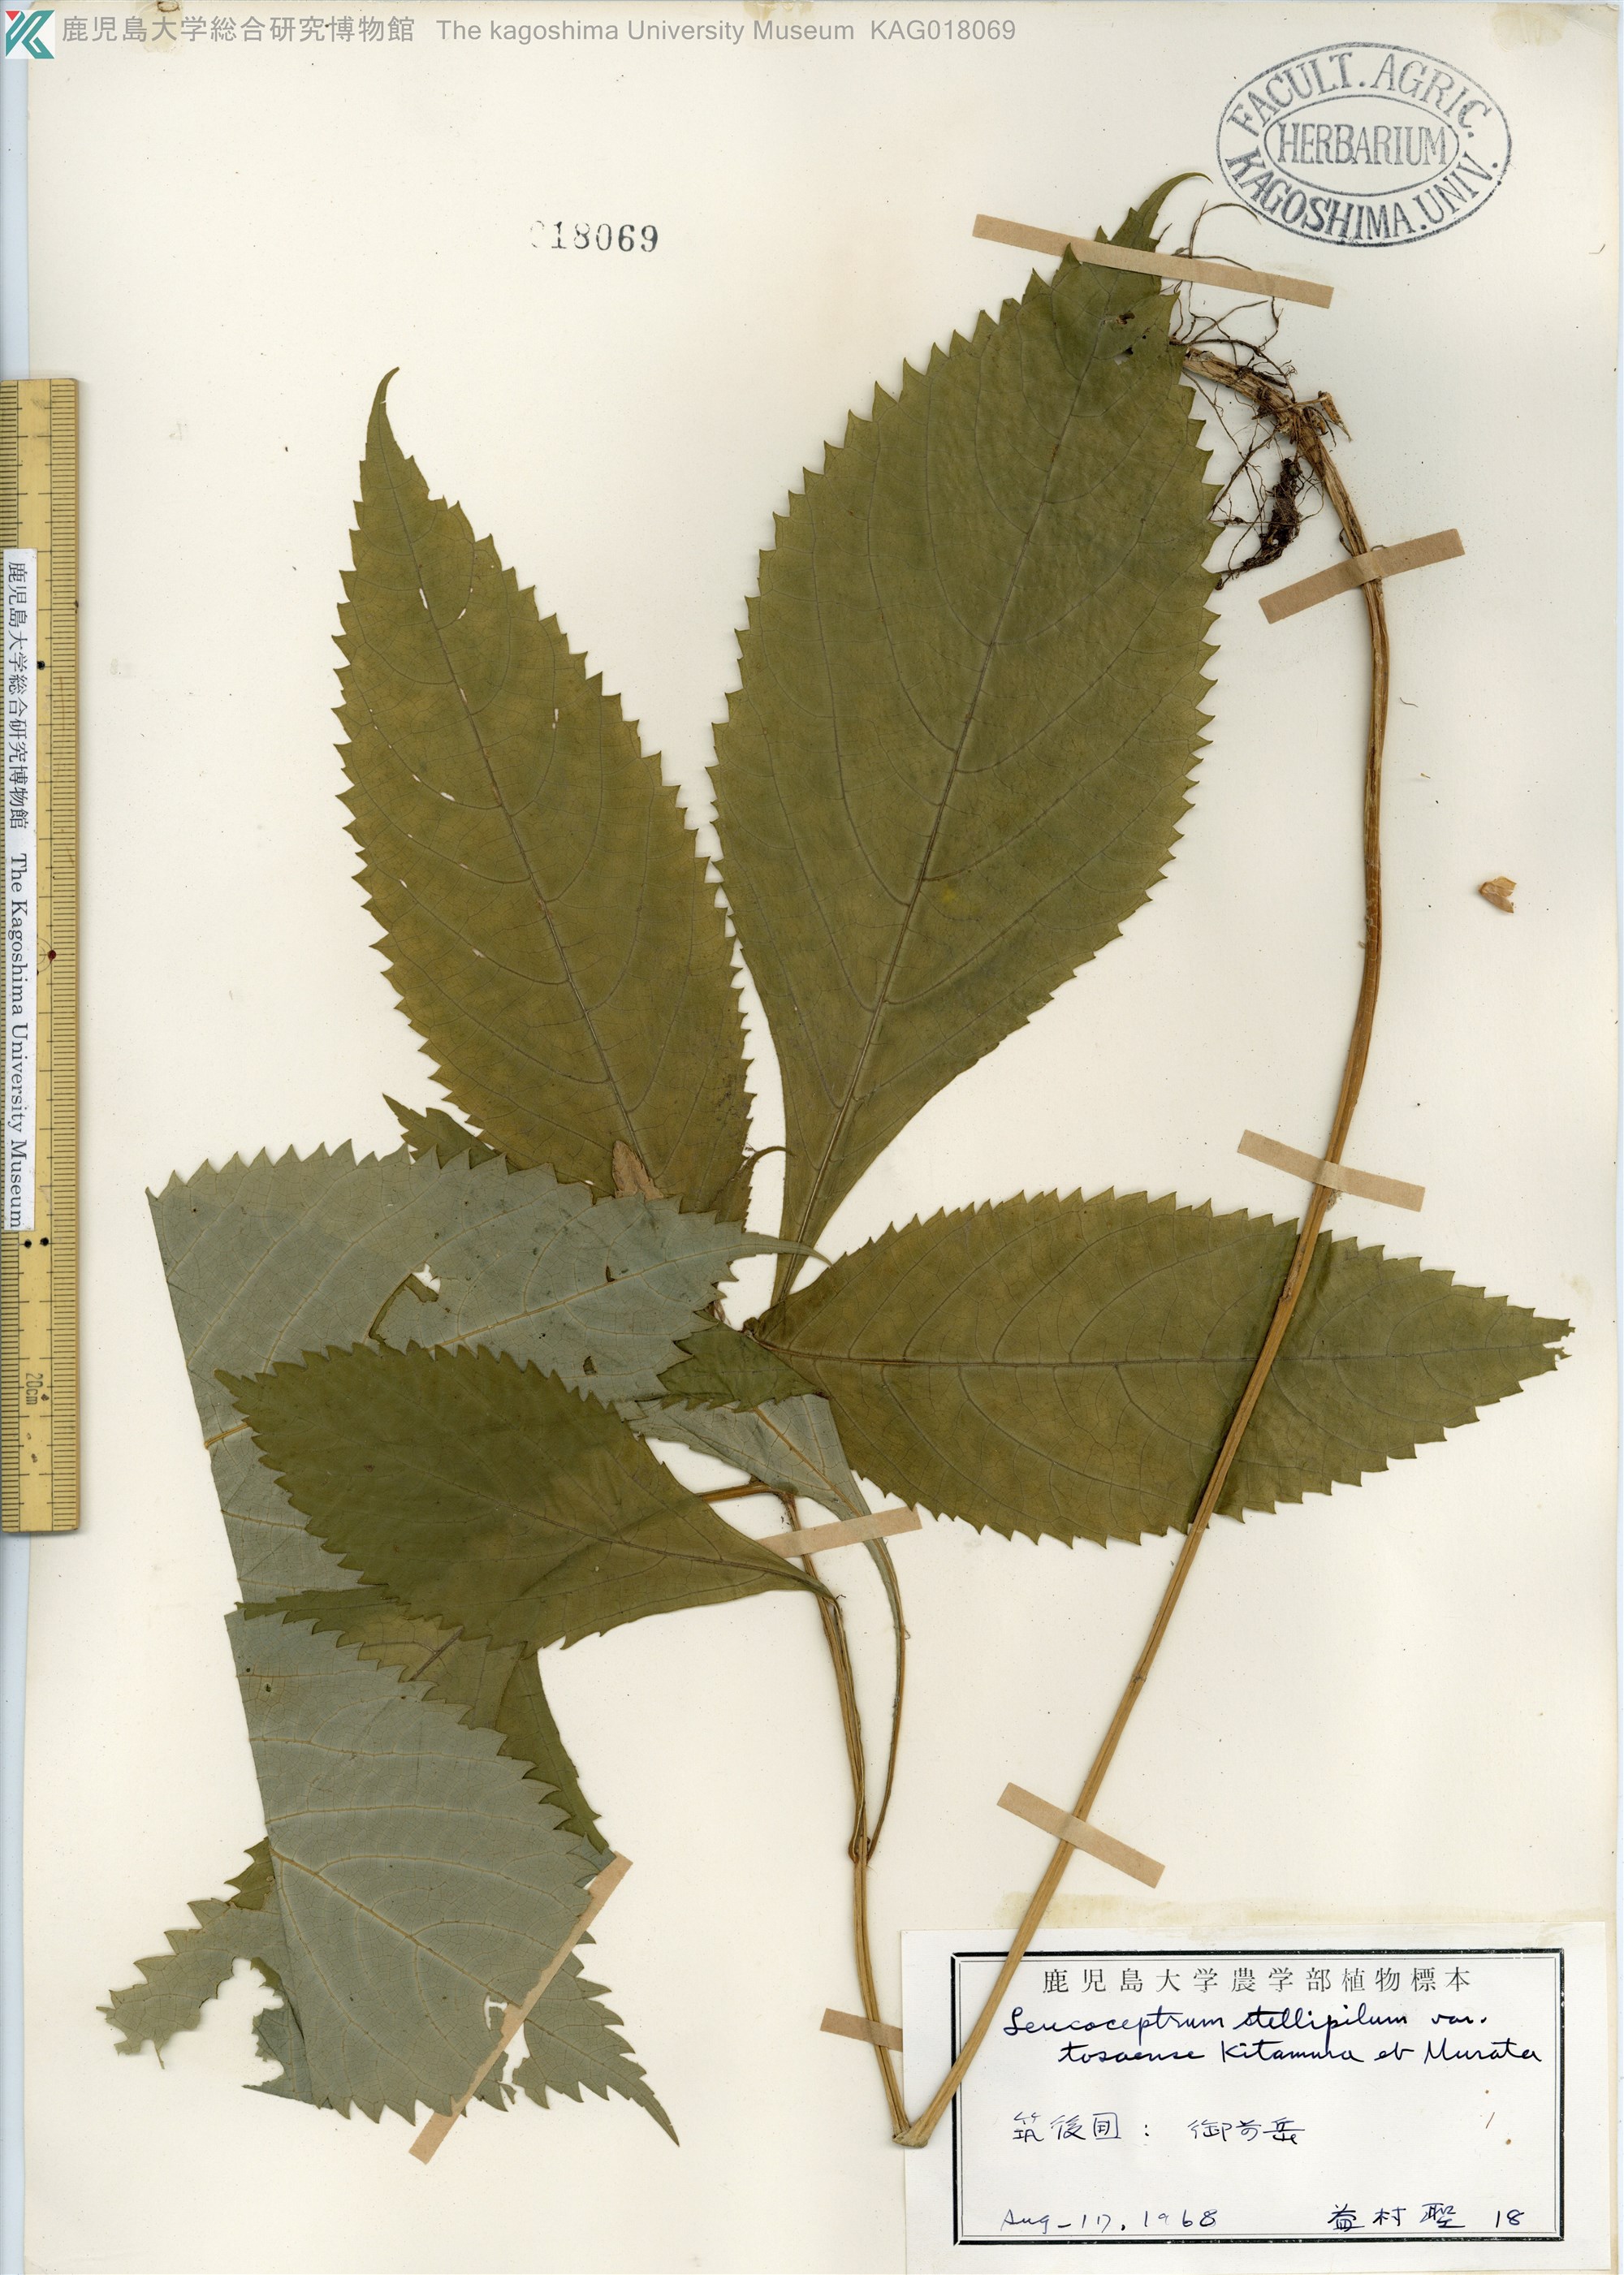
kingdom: Plantae
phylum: Tracheophyta
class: Magnoliopsida
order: Lamiales
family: Lamiaceae
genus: Comanthosphace
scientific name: Comanthosphace stellipila
